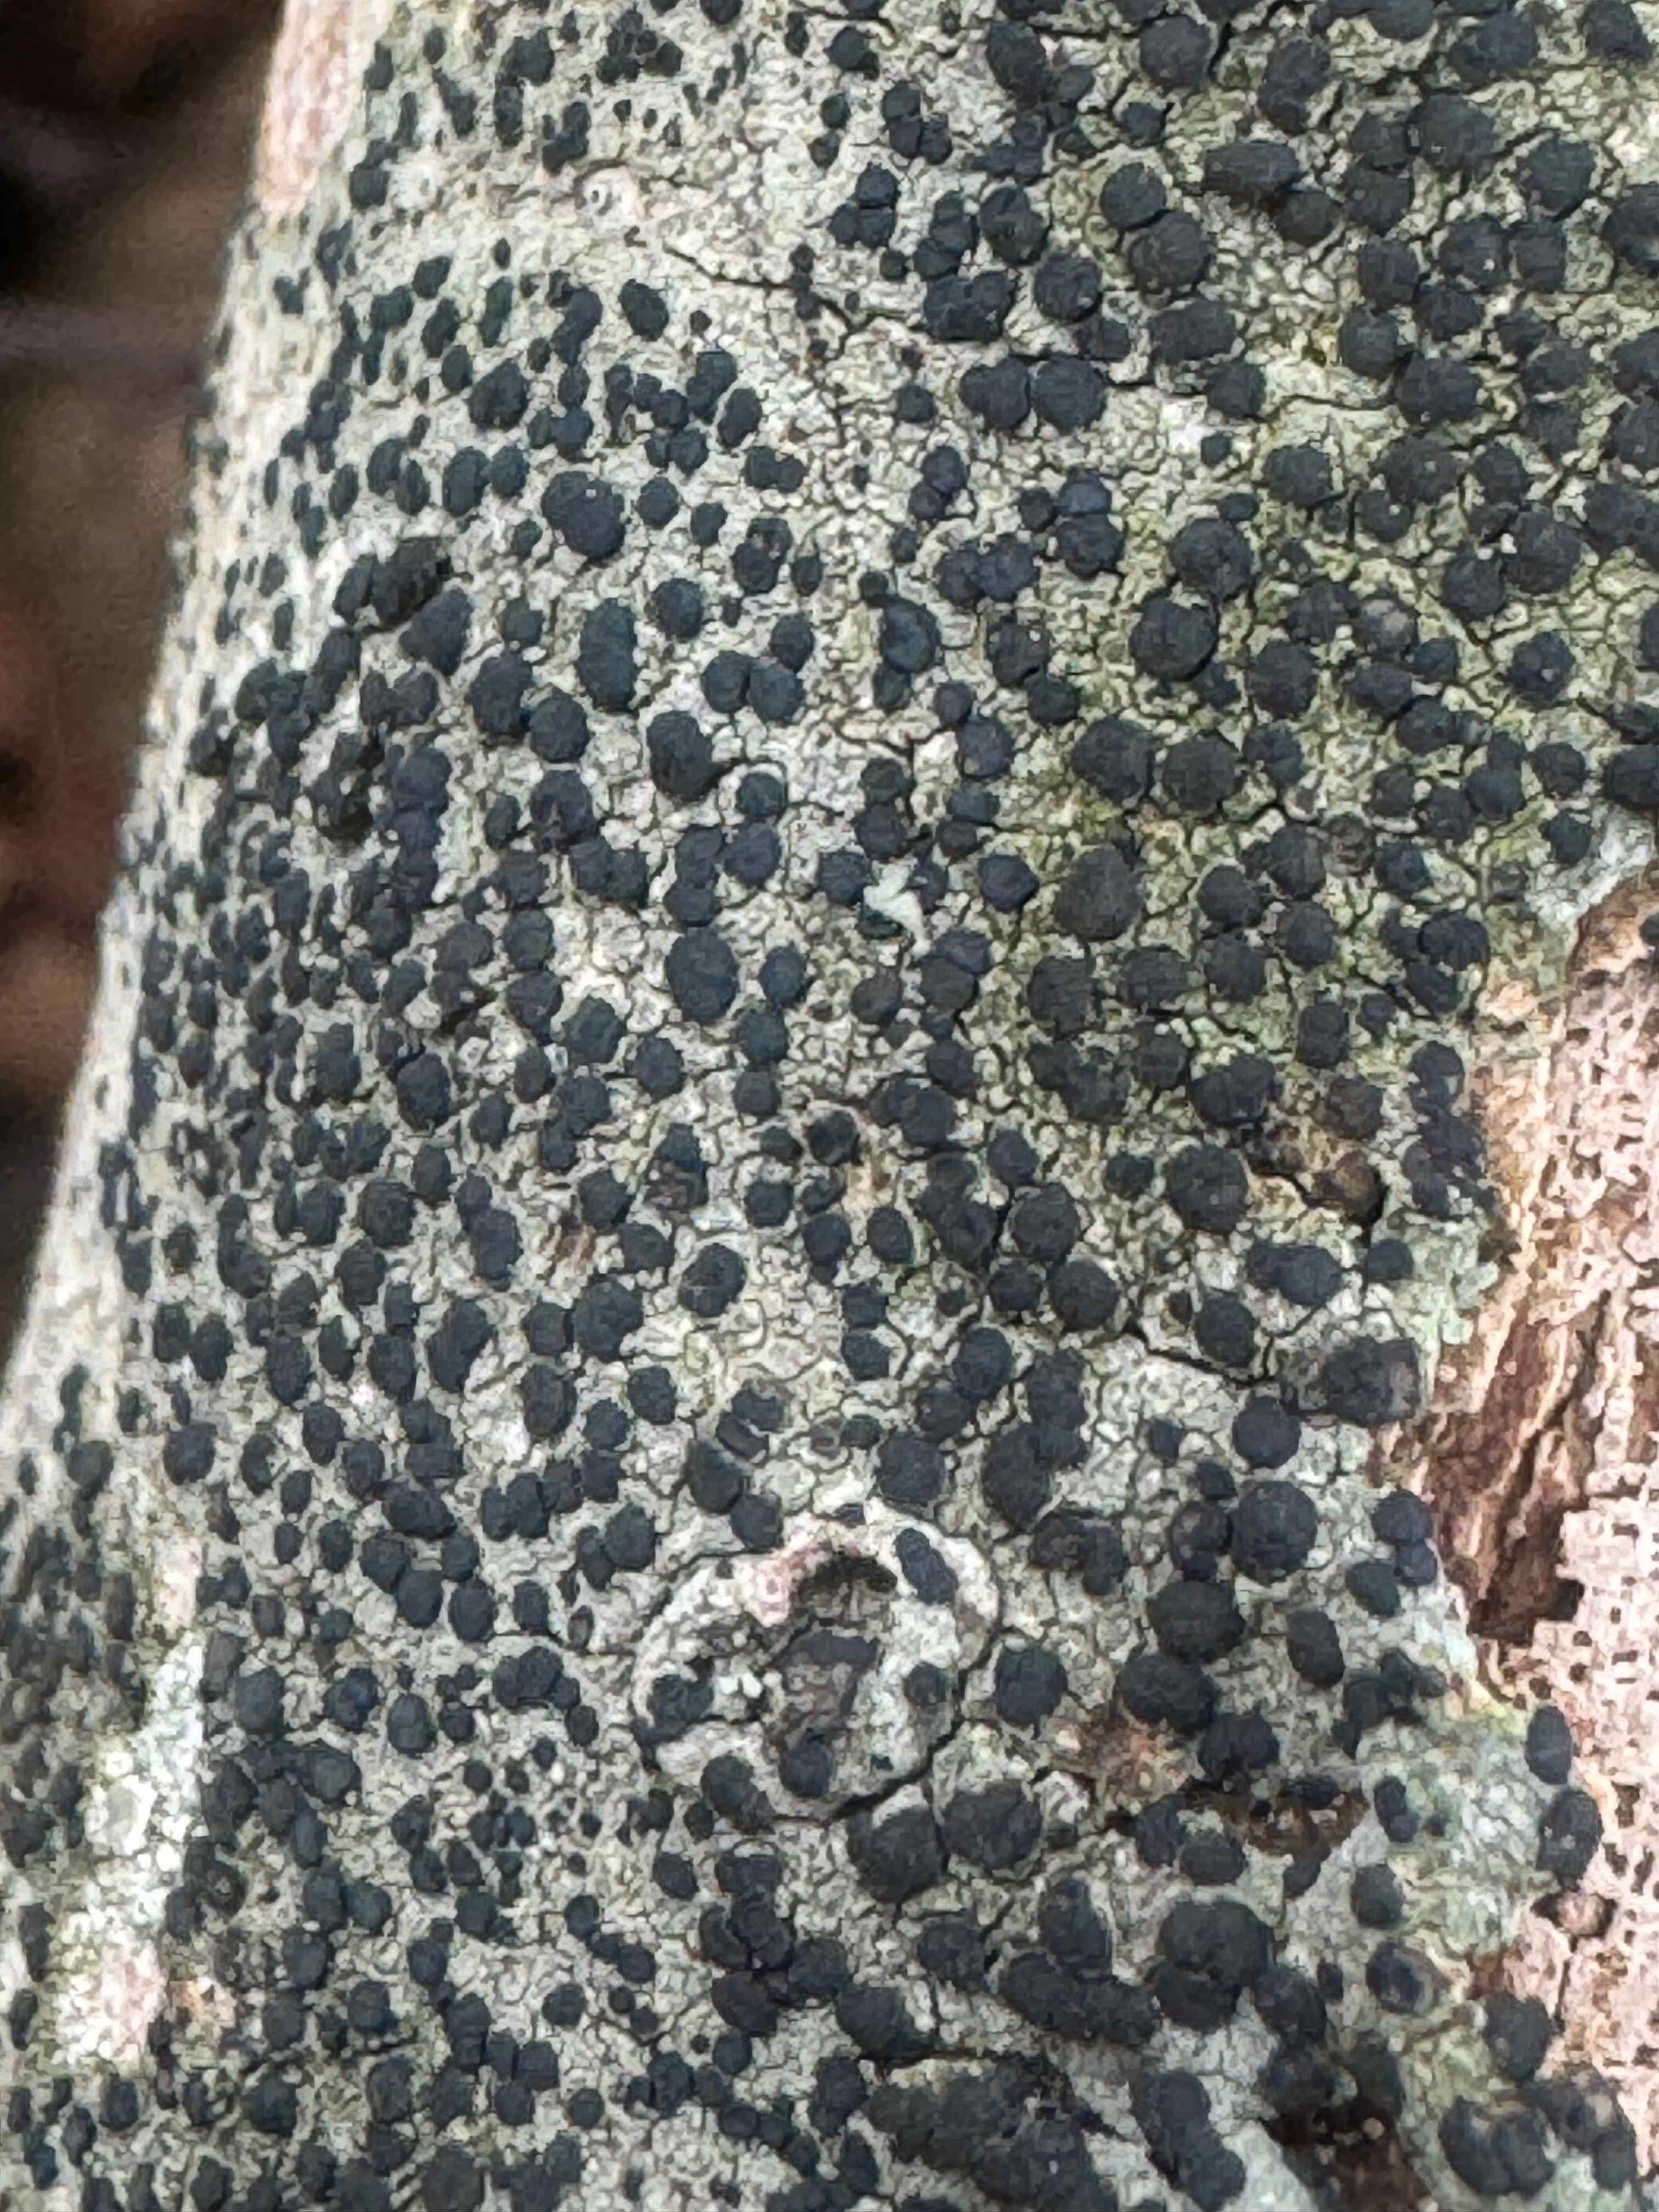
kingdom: Fungi
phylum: Ascomycota
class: Lecanoromycetes
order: Lecanorales
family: Lecanoraceae
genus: Lecidella
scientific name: Lecidella elaeochroma
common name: grågrøn skivelav
